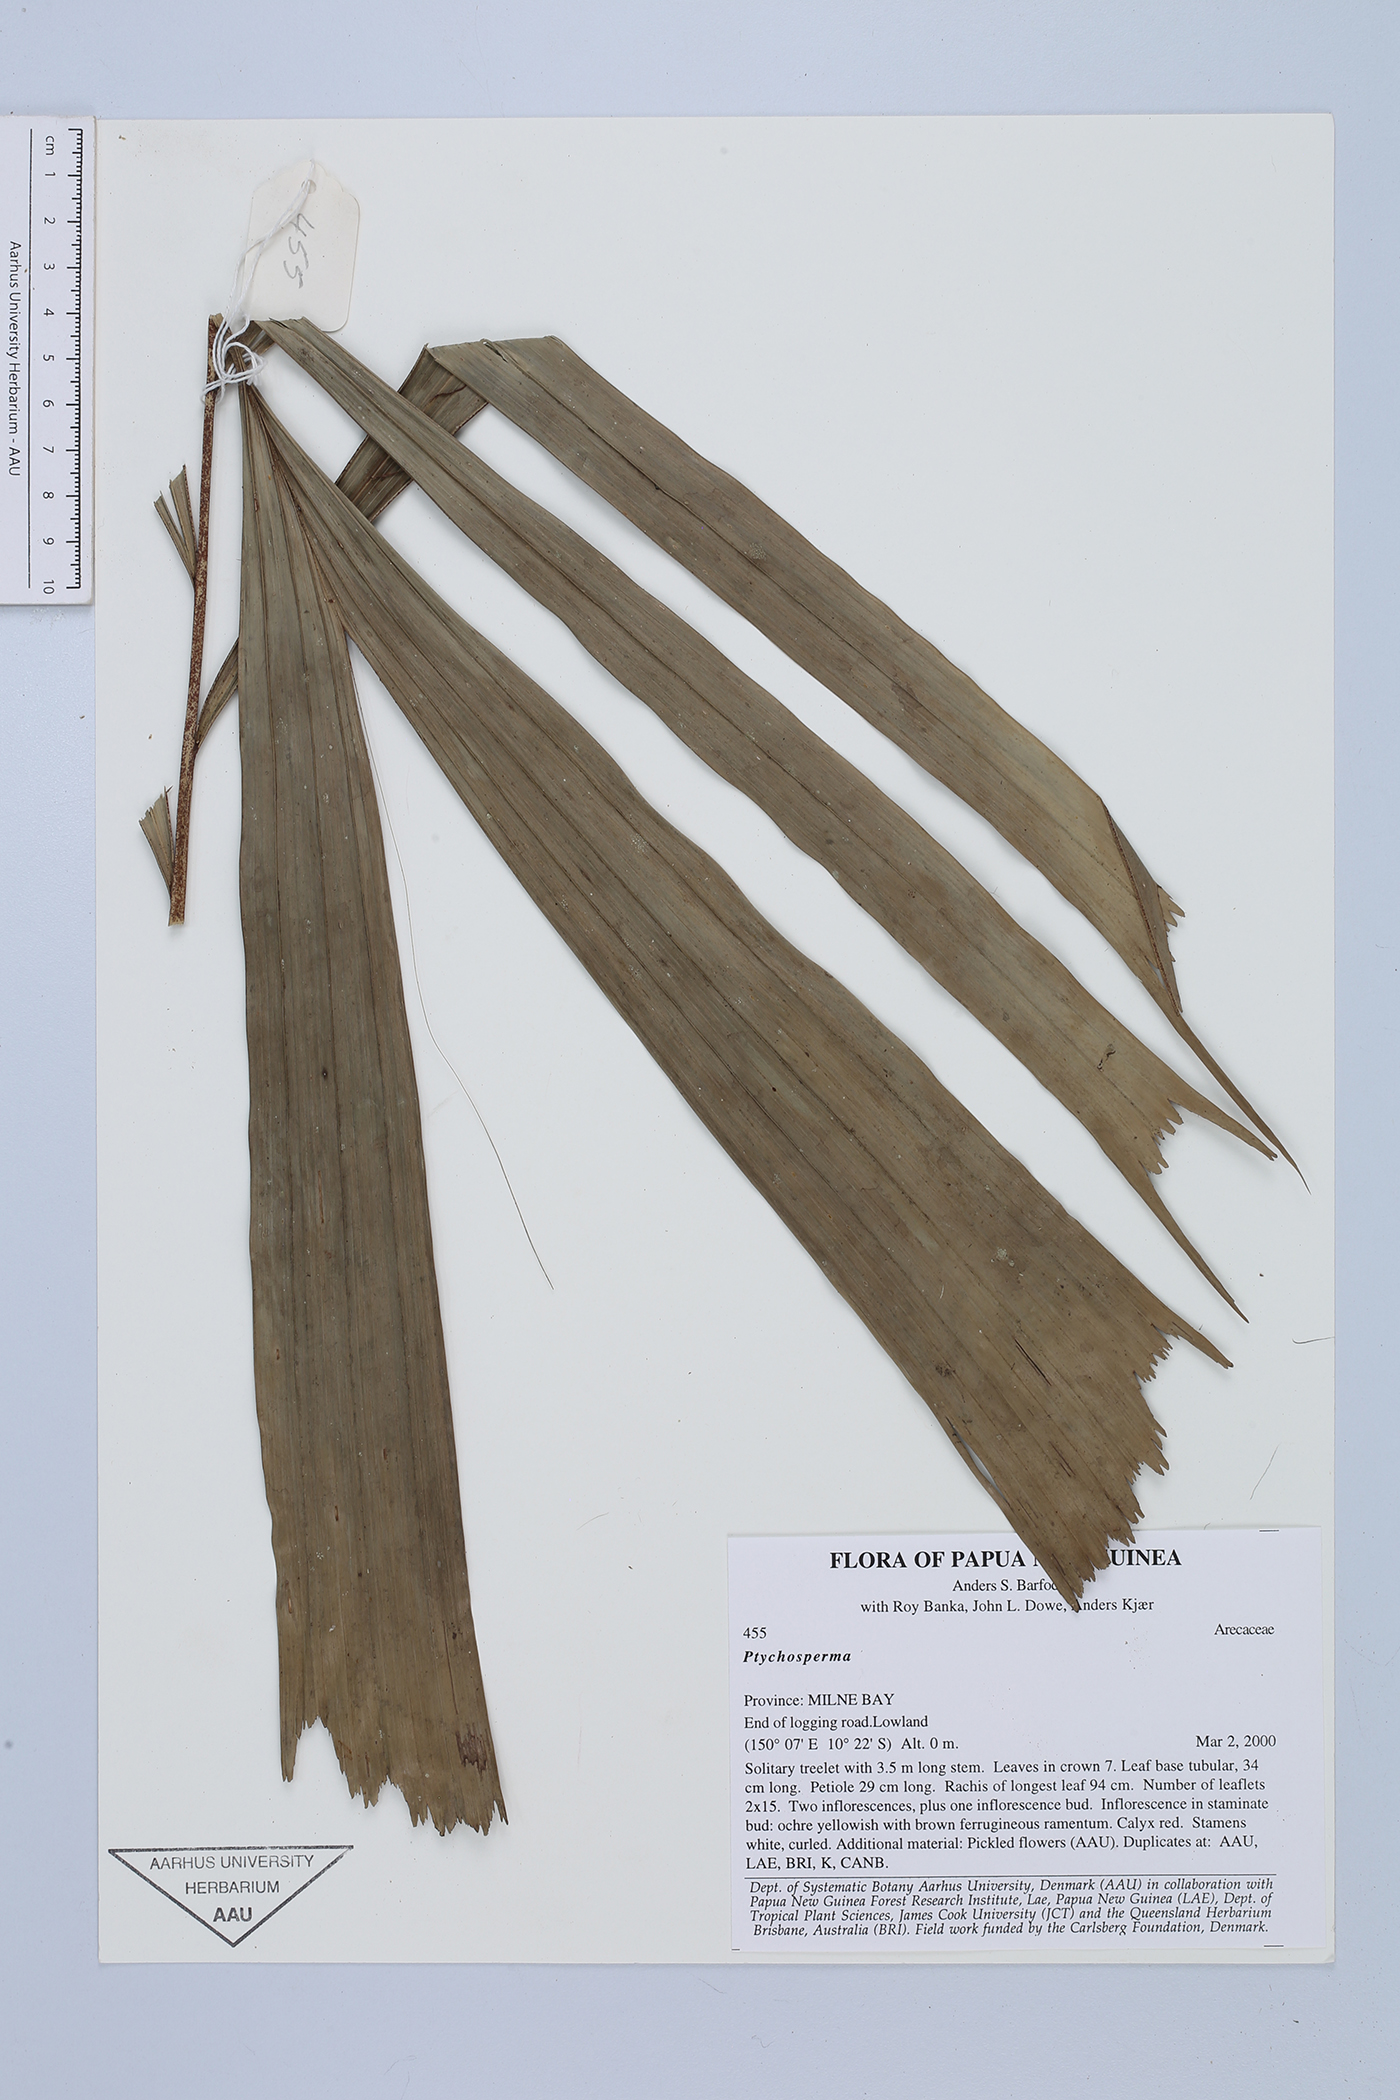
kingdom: Plantae
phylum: Tracheophyta
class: Liliopsida
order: Arecales
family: Arecaceae
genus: Ptychosperma
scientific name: Ptychosperma
